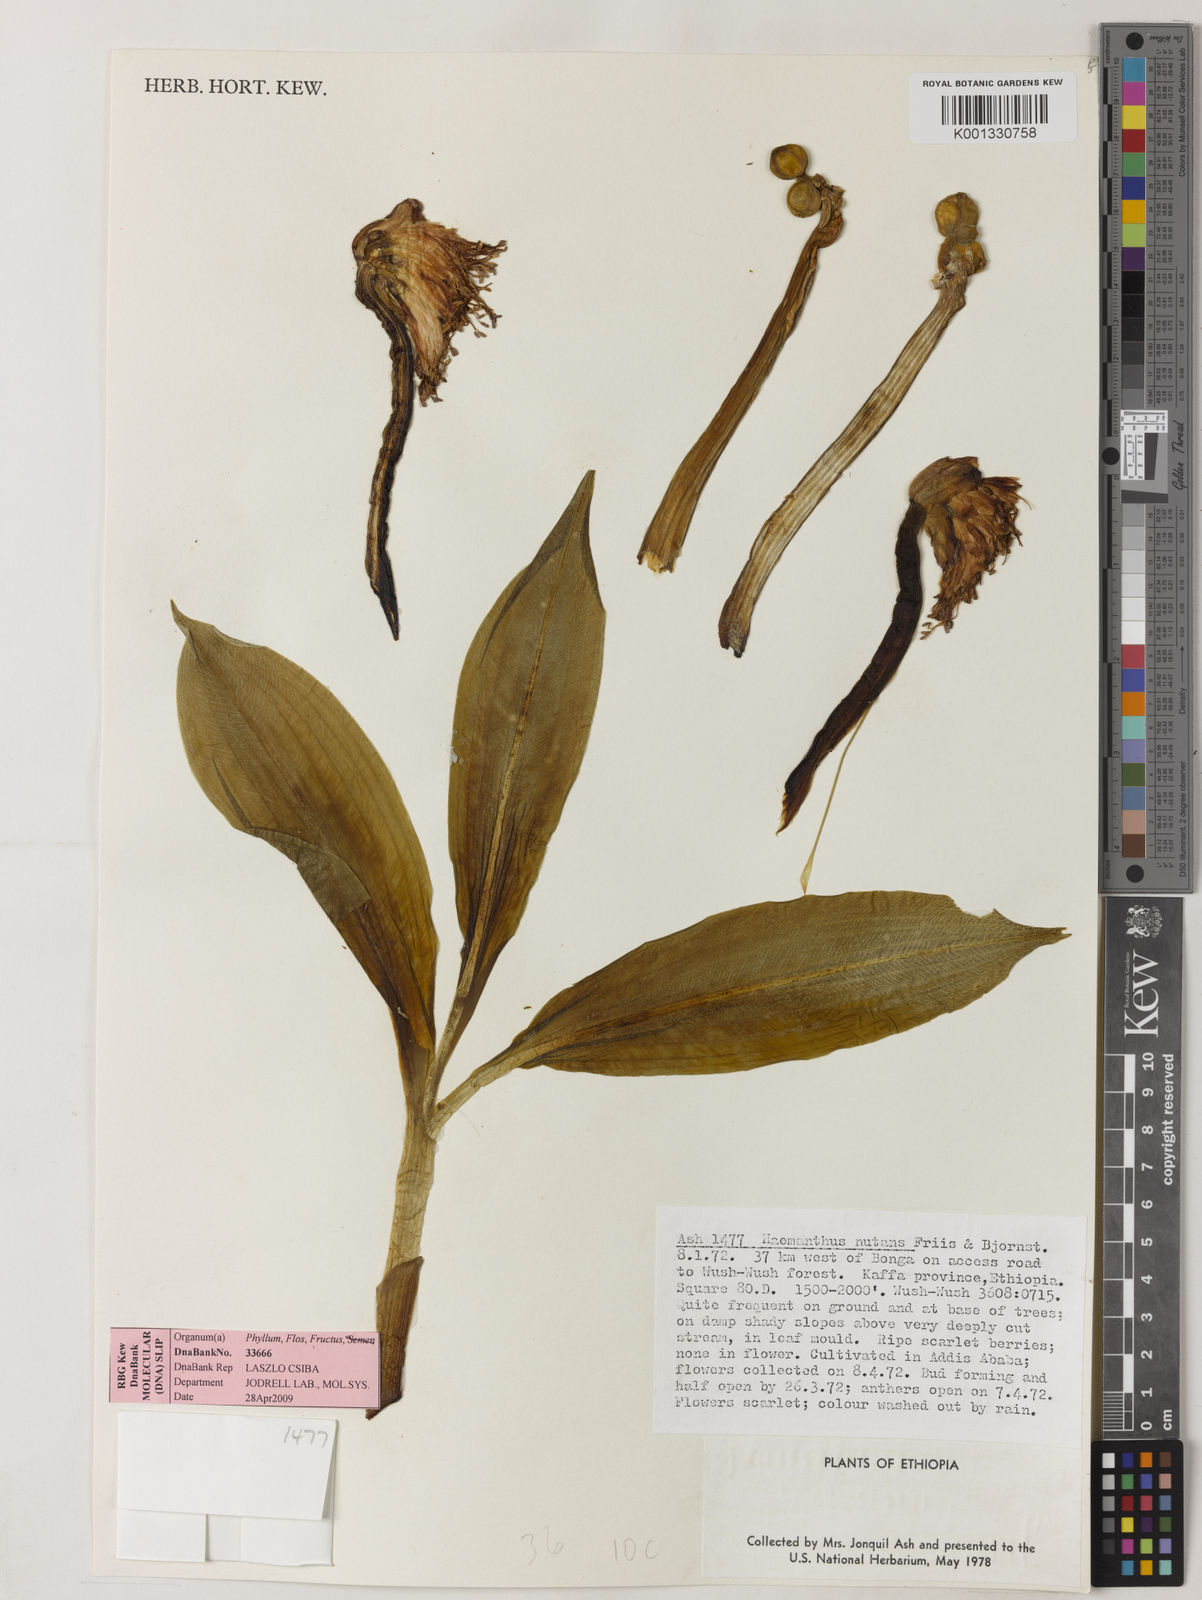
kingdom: Plantae
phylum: Tracheophyta
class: Liliopsida
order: Asparagales
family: Amaryllidaceae
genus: Scadoxus
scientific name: Scadoxus nutans
